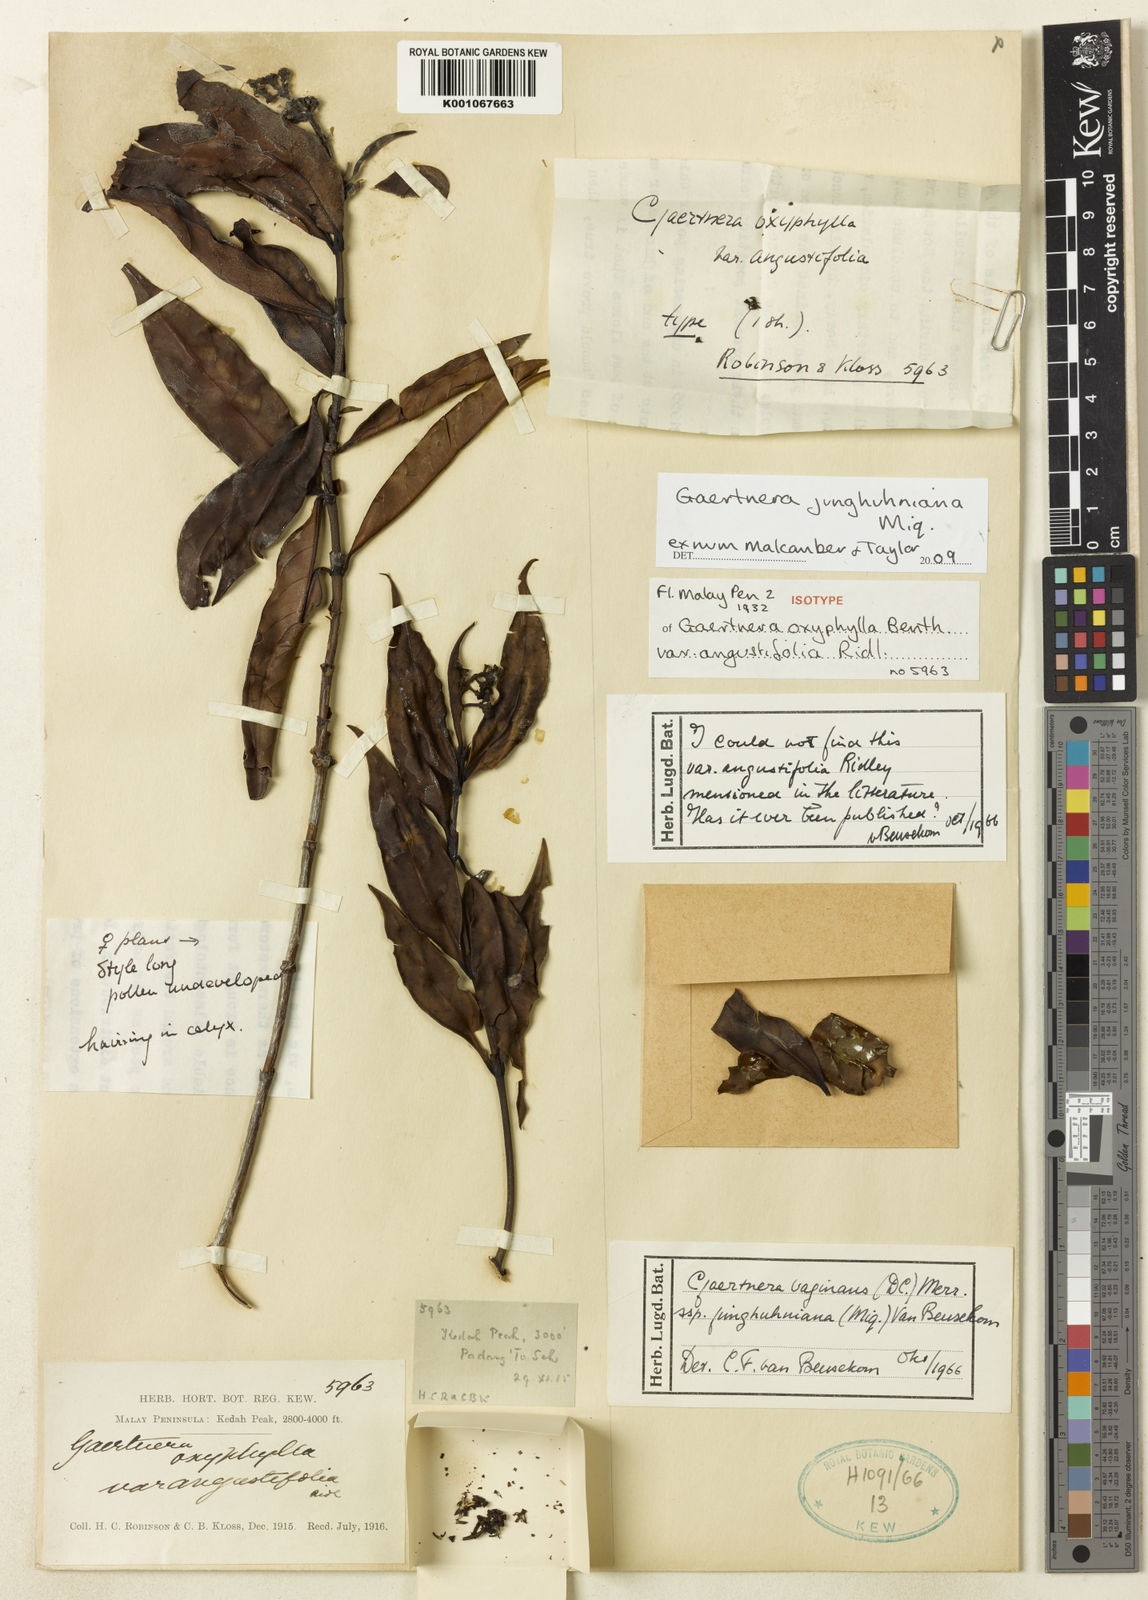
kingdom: Plantae
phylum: Tracheophyta
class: Magnoliopsida
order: Gentianales
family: Rubiaceae
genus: Gaertnera
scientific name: Gaertnera junghuhniana
